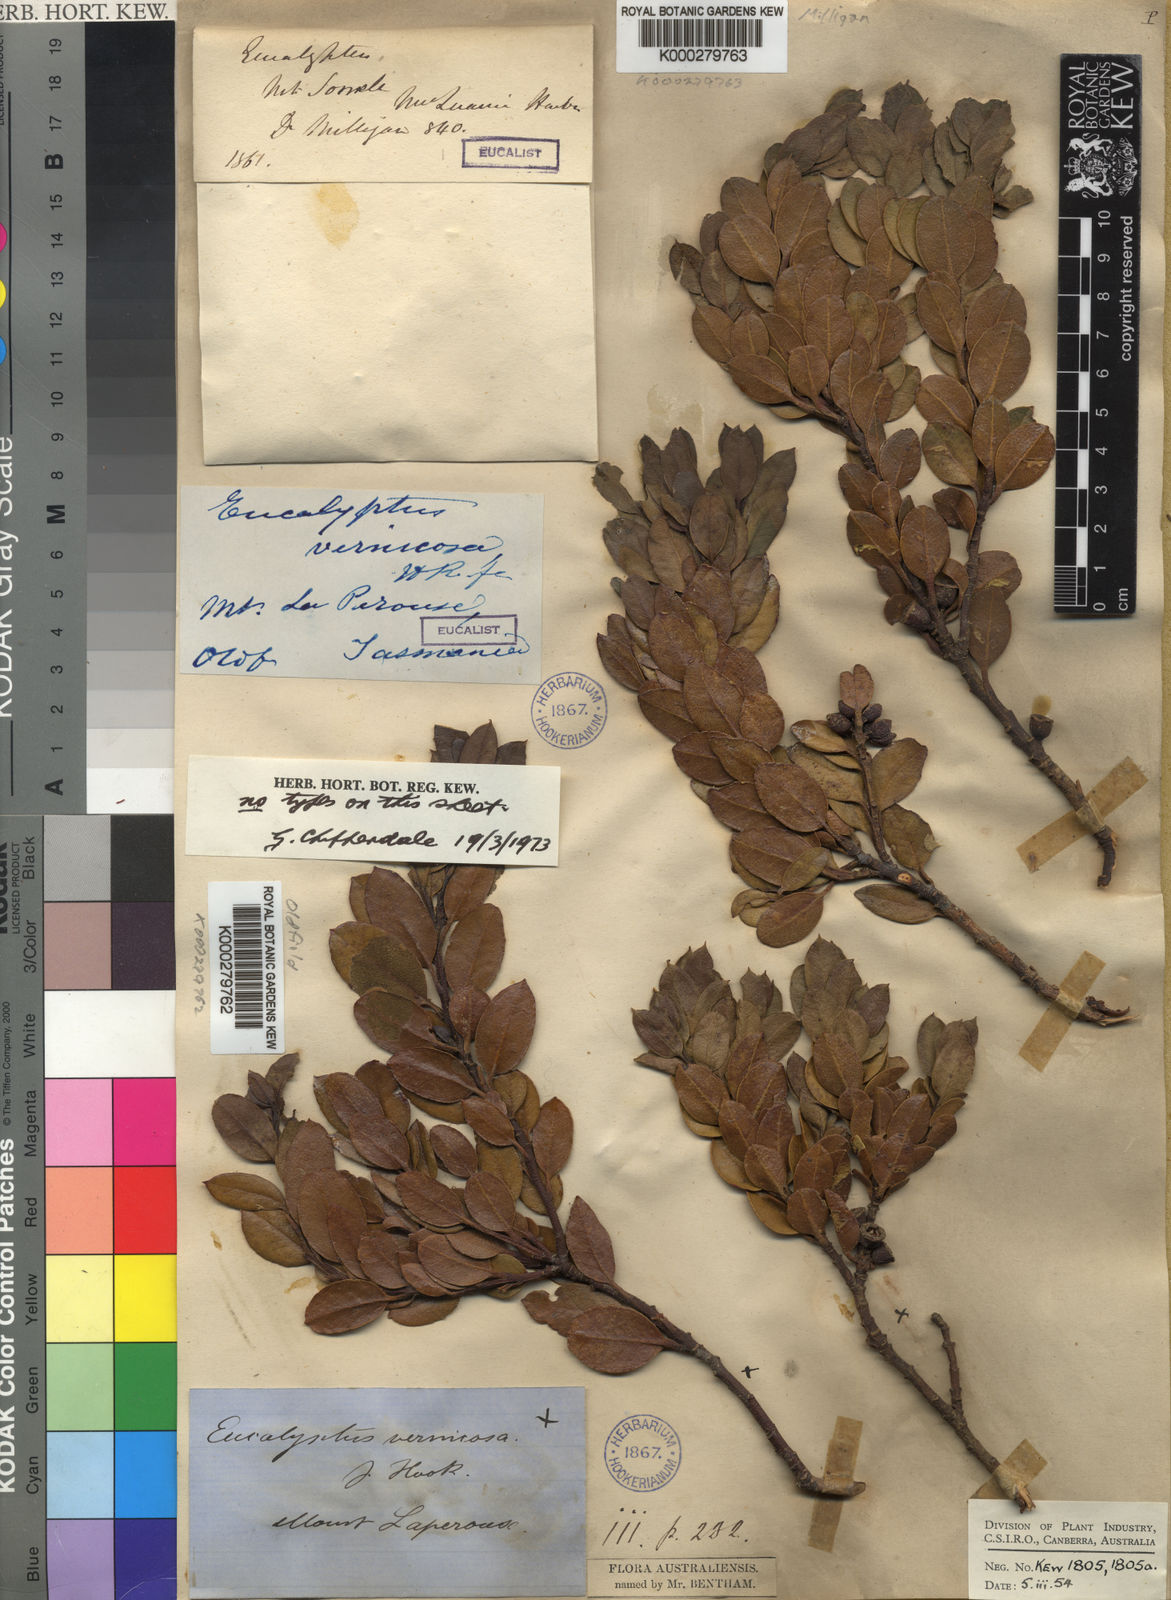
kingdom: Plantae
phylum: Tracheophyta
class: Magnoliopsida
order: Myrtales
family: Myrtaceae
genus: Eucalyptus
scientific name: Eucalyptus vernicosa
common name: Varnished gum
